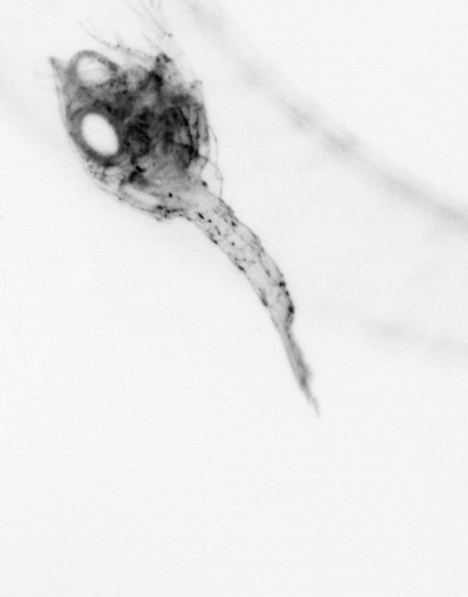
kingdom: Animalia
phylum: Arthropoda
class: Malacostraca
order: Decapoda
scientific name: Decapoda
